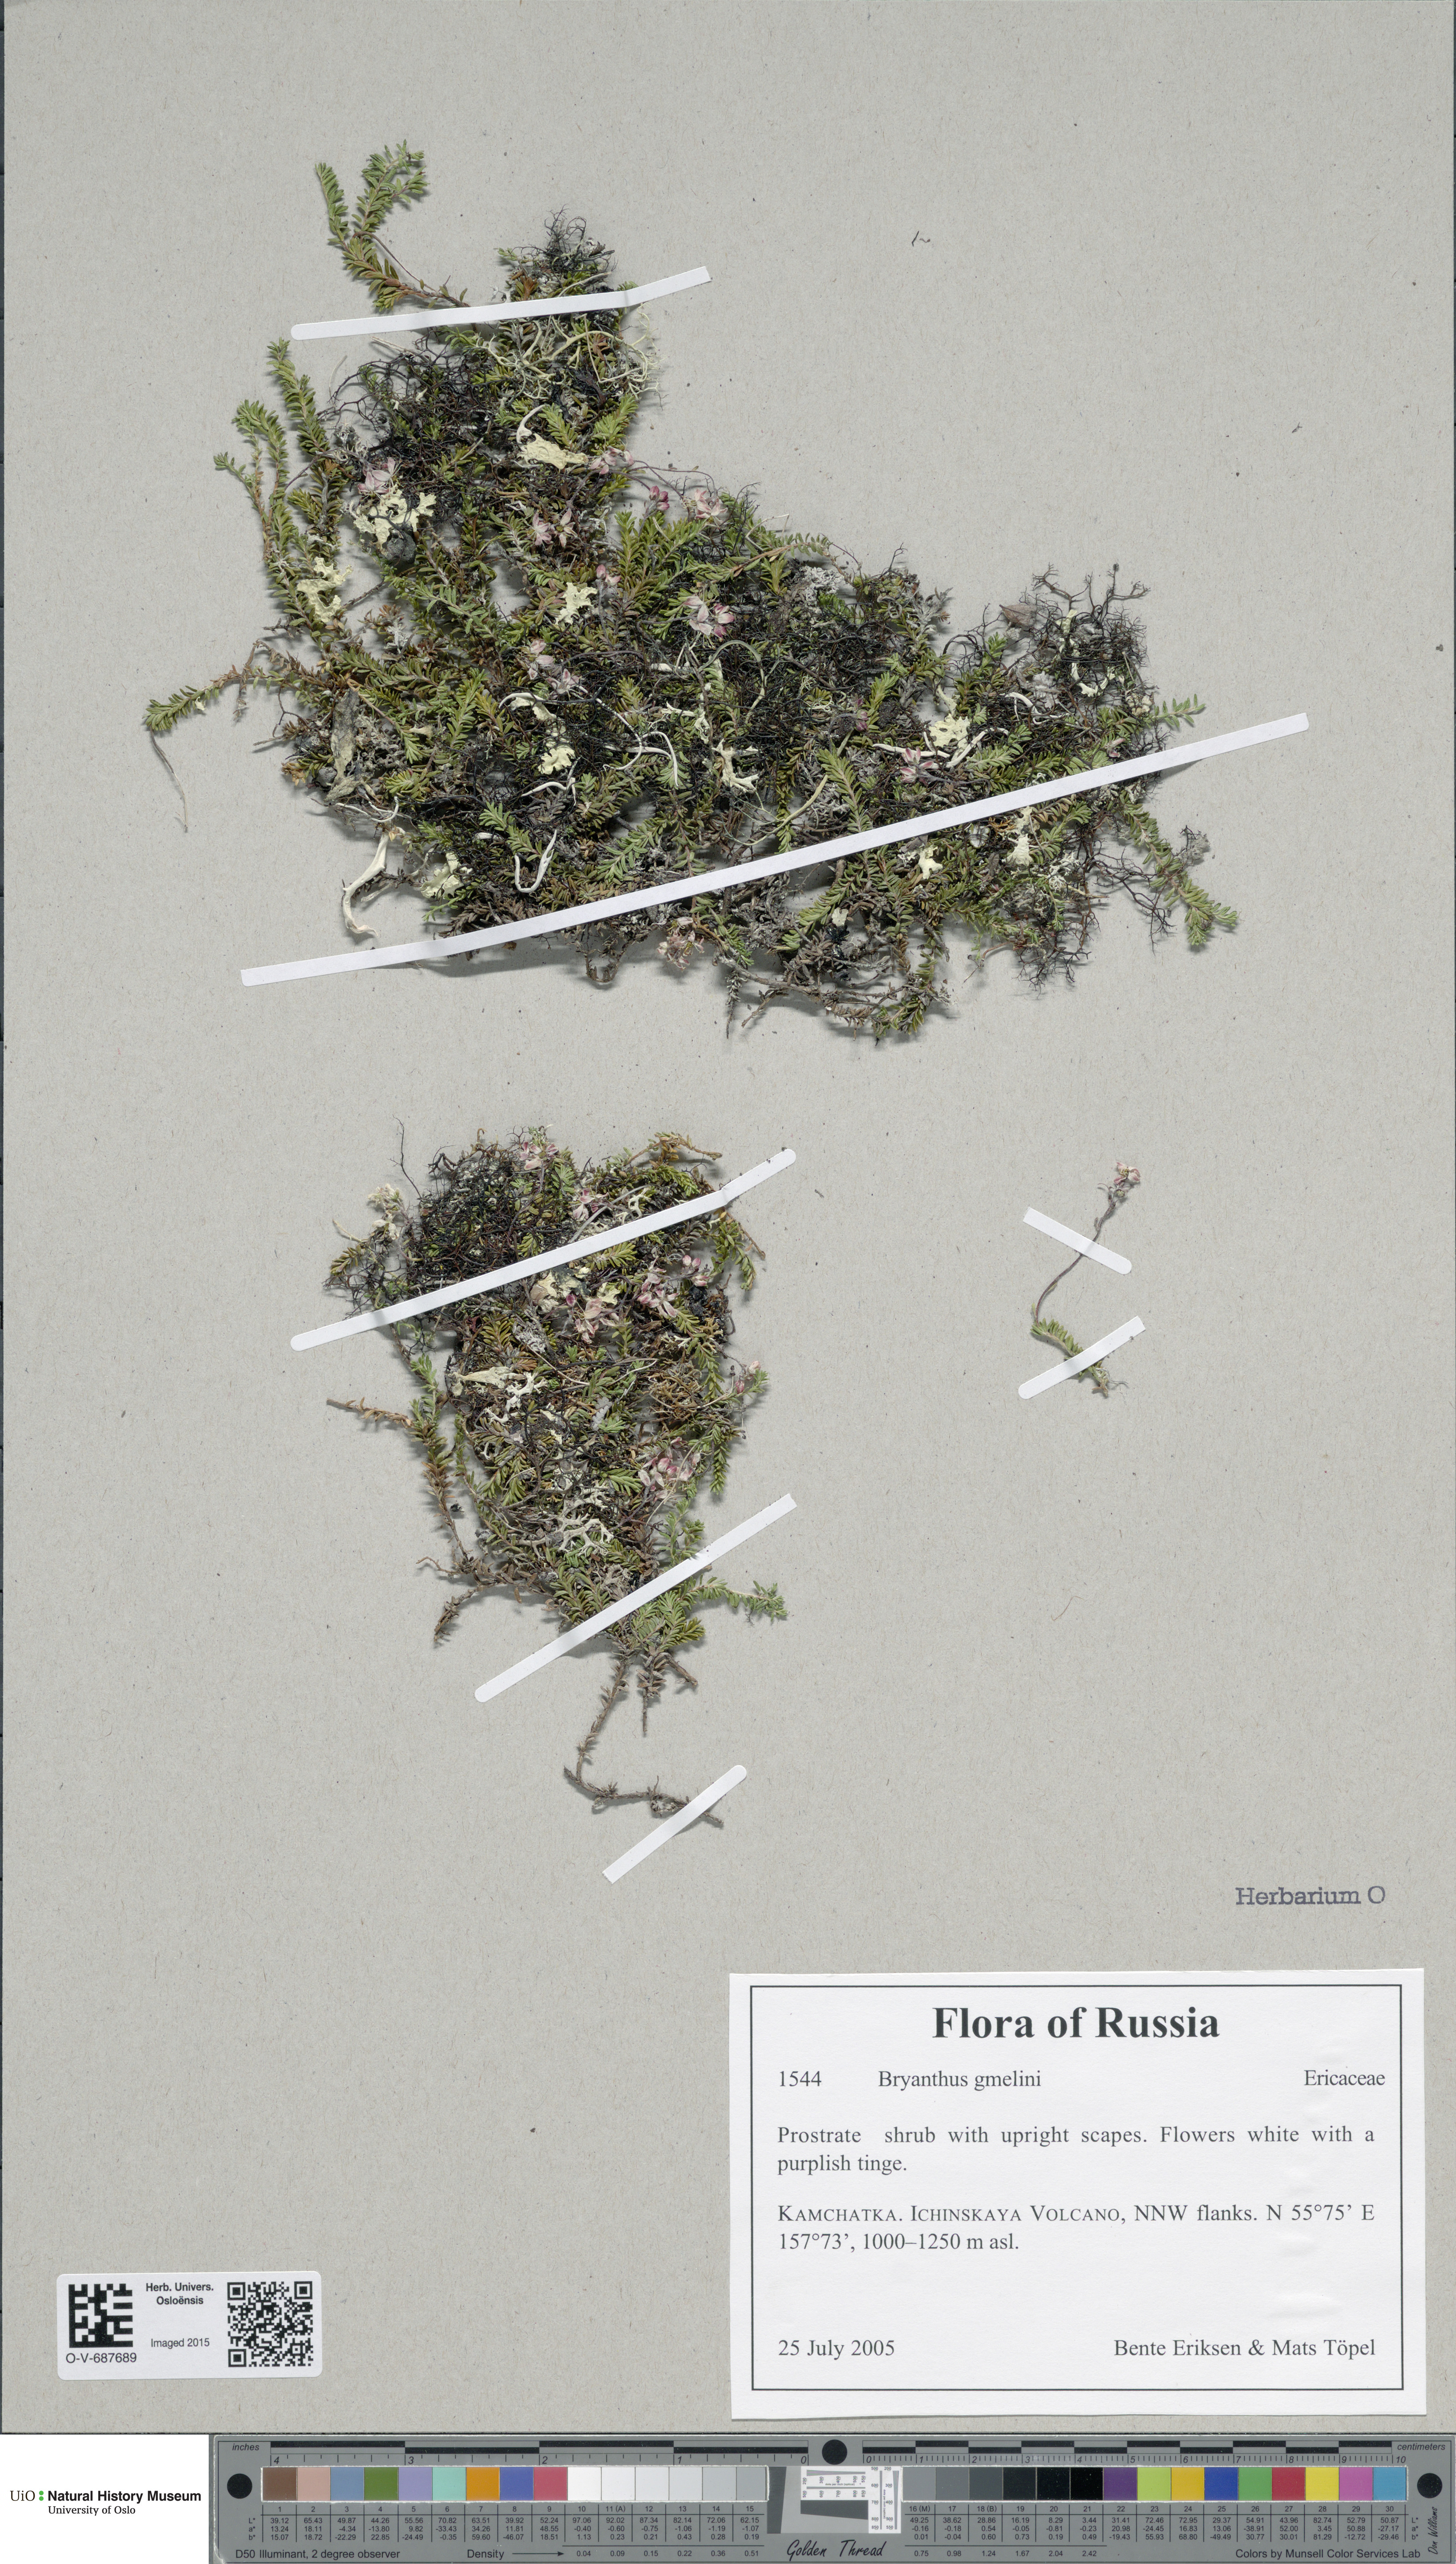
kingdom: Plantae
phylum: Tracheophyta
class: Magnoliopsida
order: Ericales
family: Ericaceae
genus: Bryanthus
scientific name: Bryanthus musciformis
